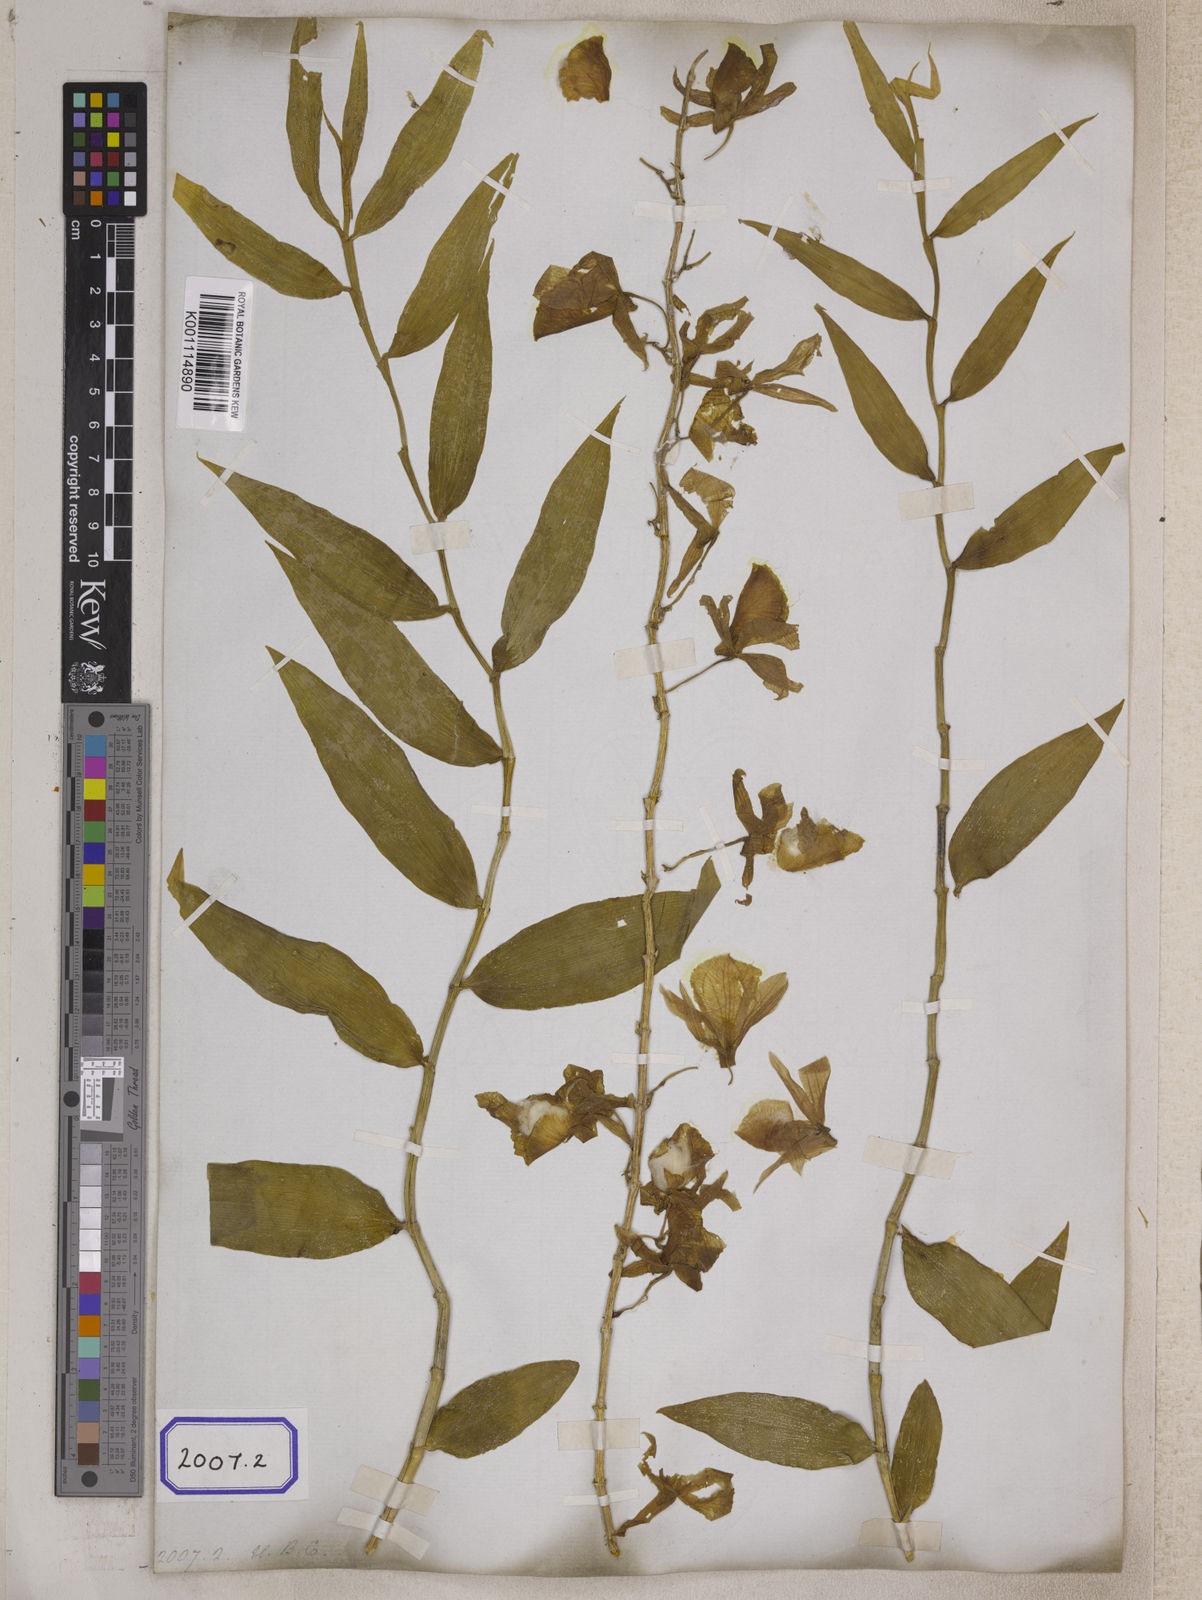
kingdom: Plantae
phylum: Tracheophyta
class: Liliopsida
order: Asparagales
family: Orchidaceae
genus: Dendrobium
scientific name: Dendrobium
